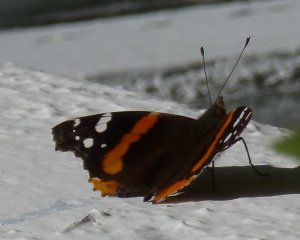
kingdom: Animalia
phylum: Arthropoda
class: Insecta
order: Lepidoptera
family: Nymphalidae
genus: Vanessa
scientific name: Vanessa atalanta
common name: Red Admiral
